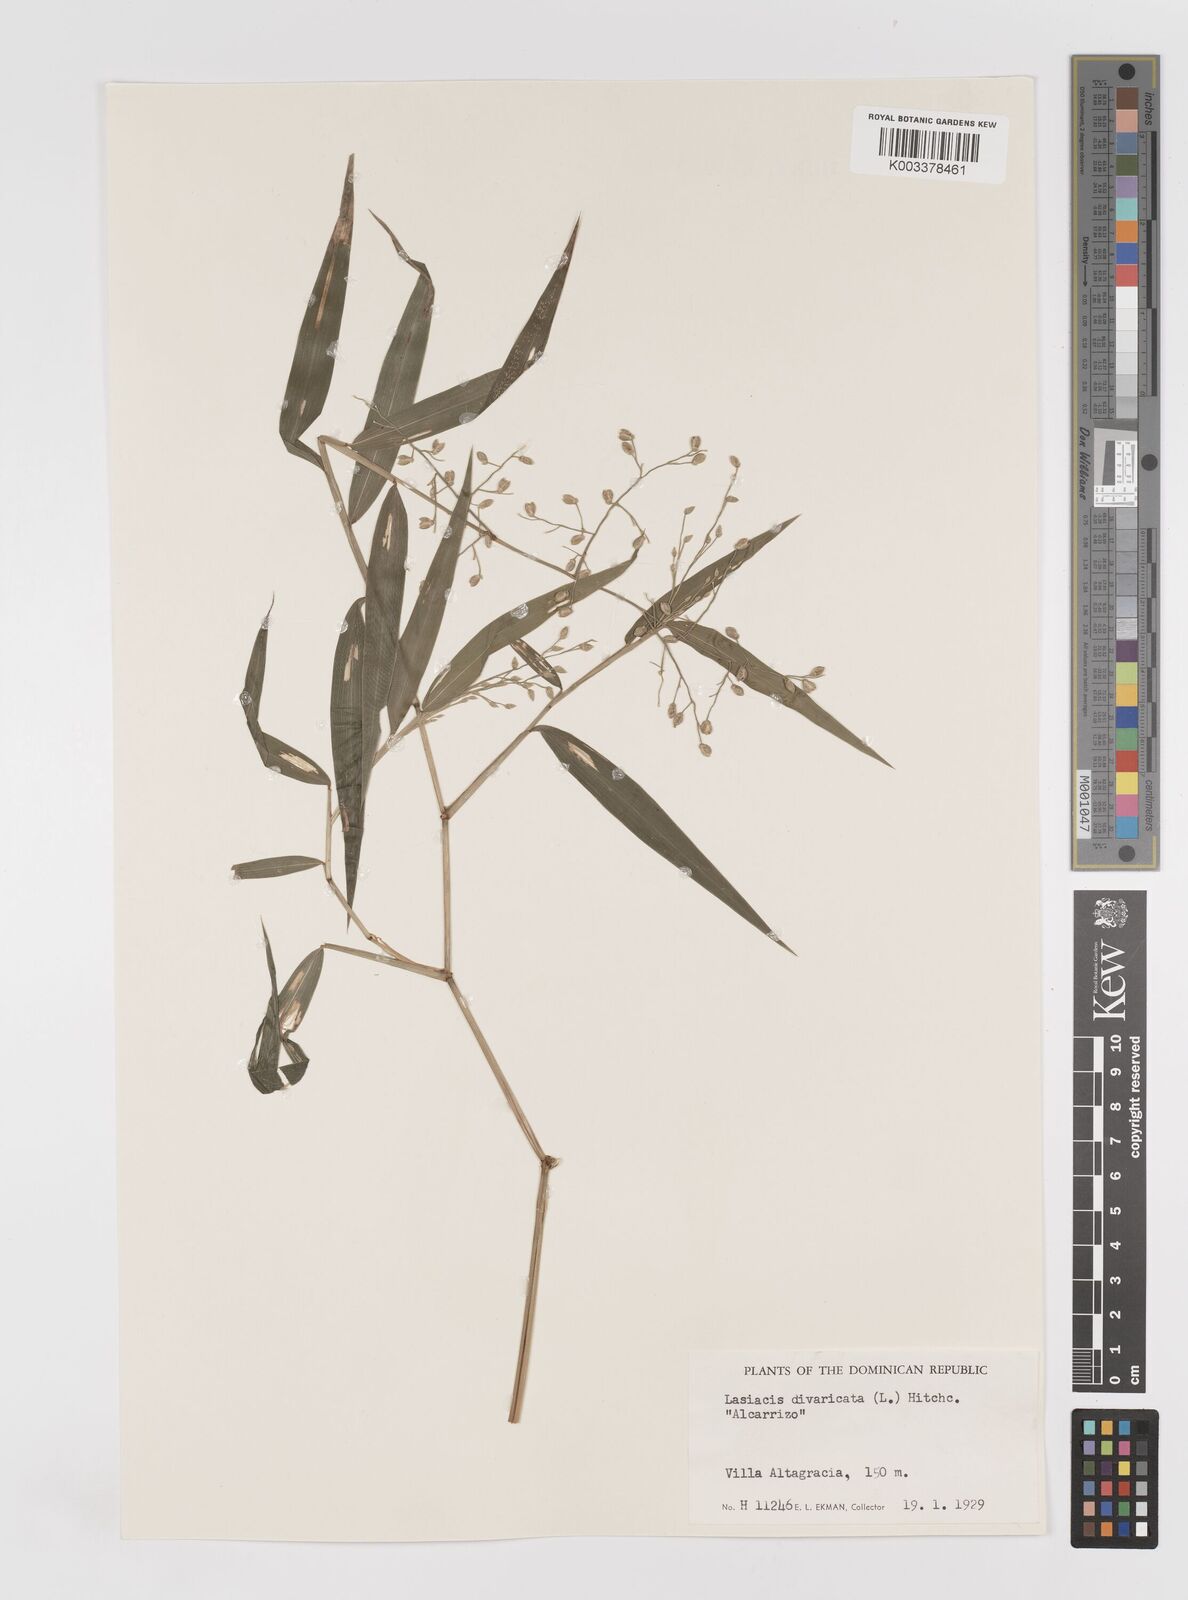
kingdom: Plantae
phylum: Tracheophyta
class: Liliopsida
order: Poales
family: Poaceae
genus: Lasiacis
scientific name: Lasiacis divaricata
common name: Smallcane
